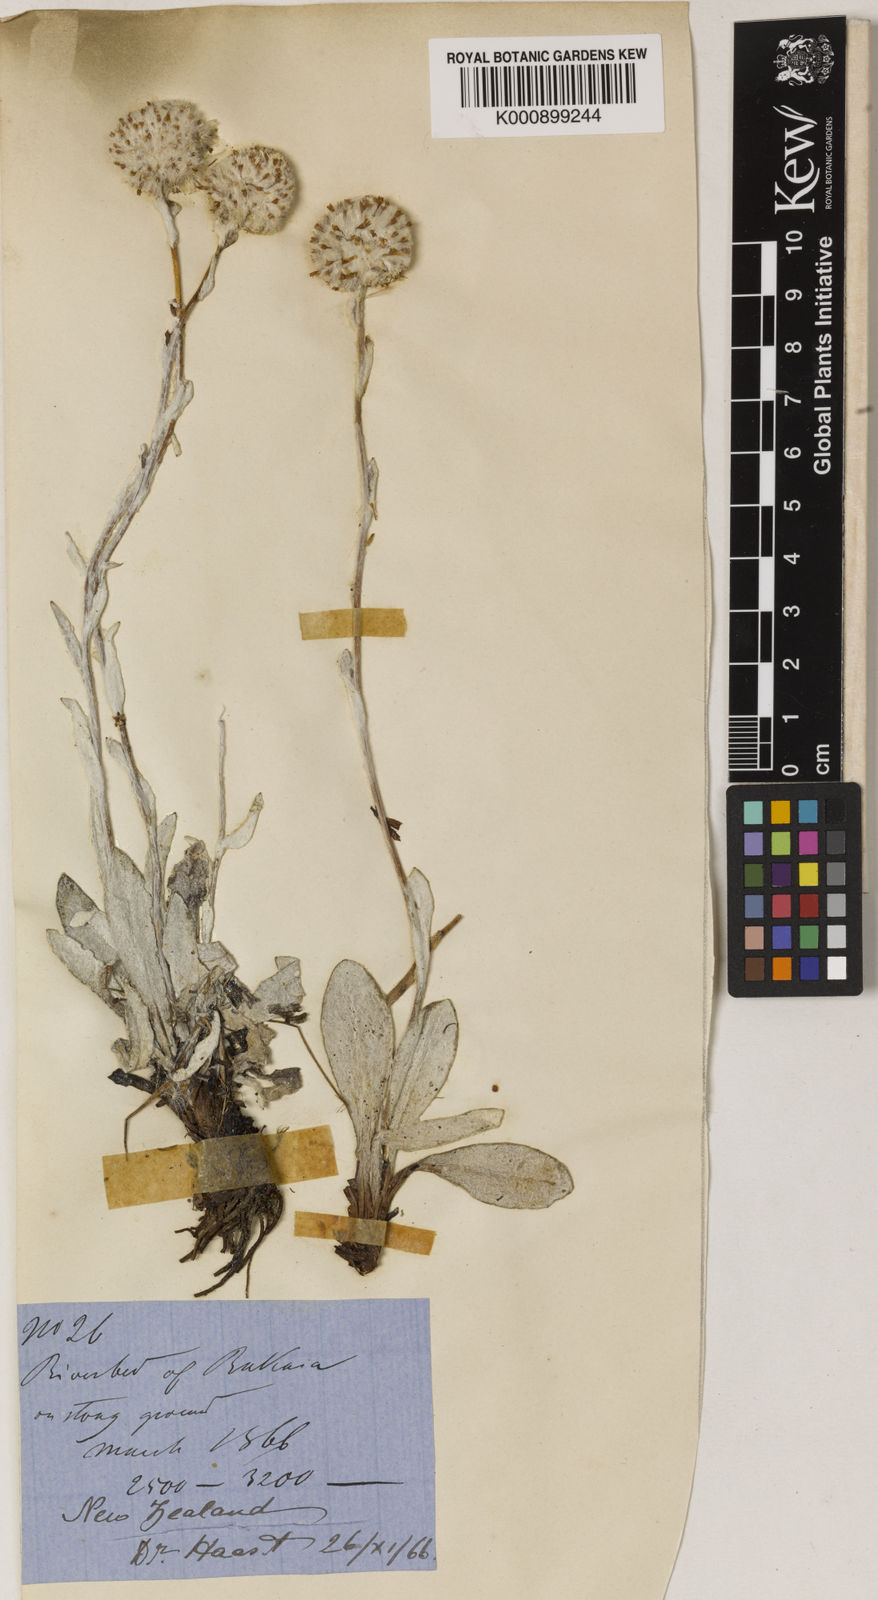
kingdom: Plantae
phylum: Tracheophyta
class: Magnoliopsida
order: Asterales
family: Asteraceae
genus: Craspedia
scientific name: Craspedia uniflora
